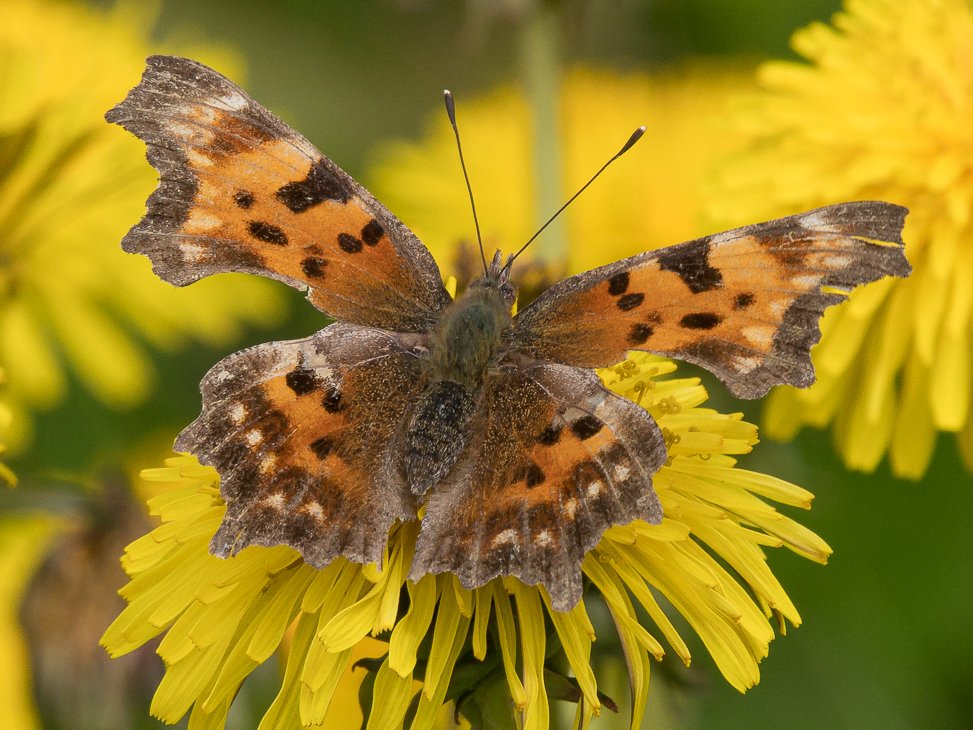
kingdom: Animalia
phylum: Arthropoda
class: Insecta
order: Lepidoptera
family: Nymphalidae
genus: Polygonia
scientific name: Polygonia faunus
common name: Green Comma
